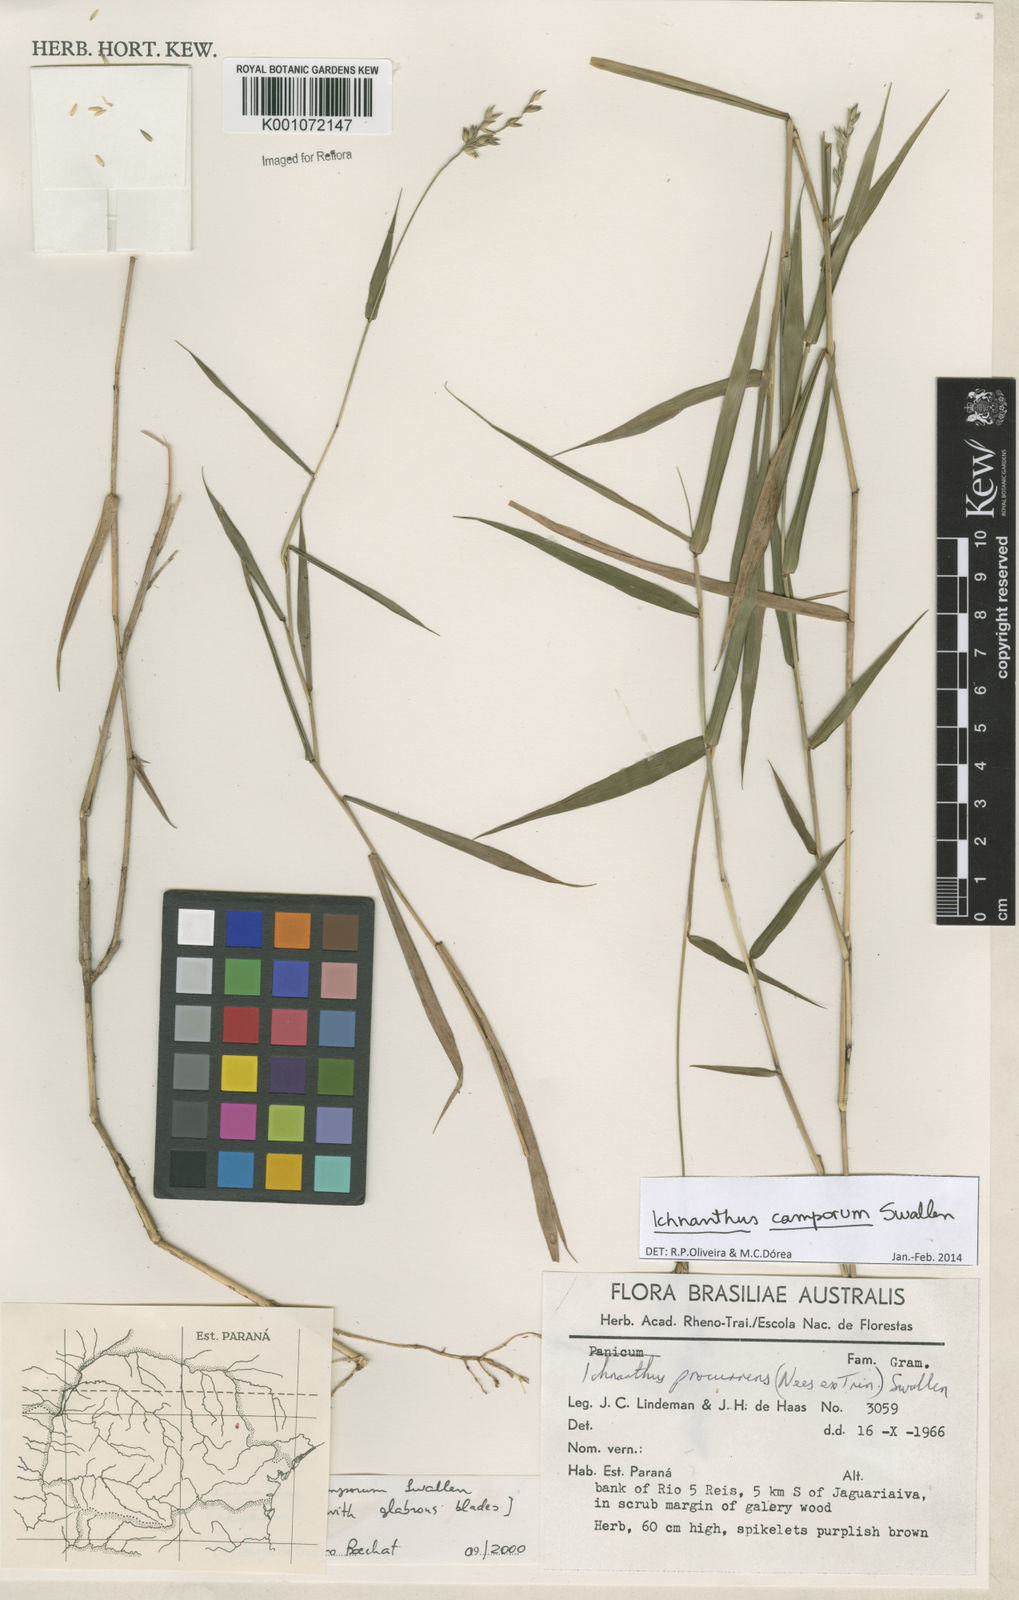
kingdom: Plantae
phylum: Tracheophyta
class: Liliopsida
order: Poales
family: Poaceae
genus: Oedochloa
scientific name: Oedochloa camporum
